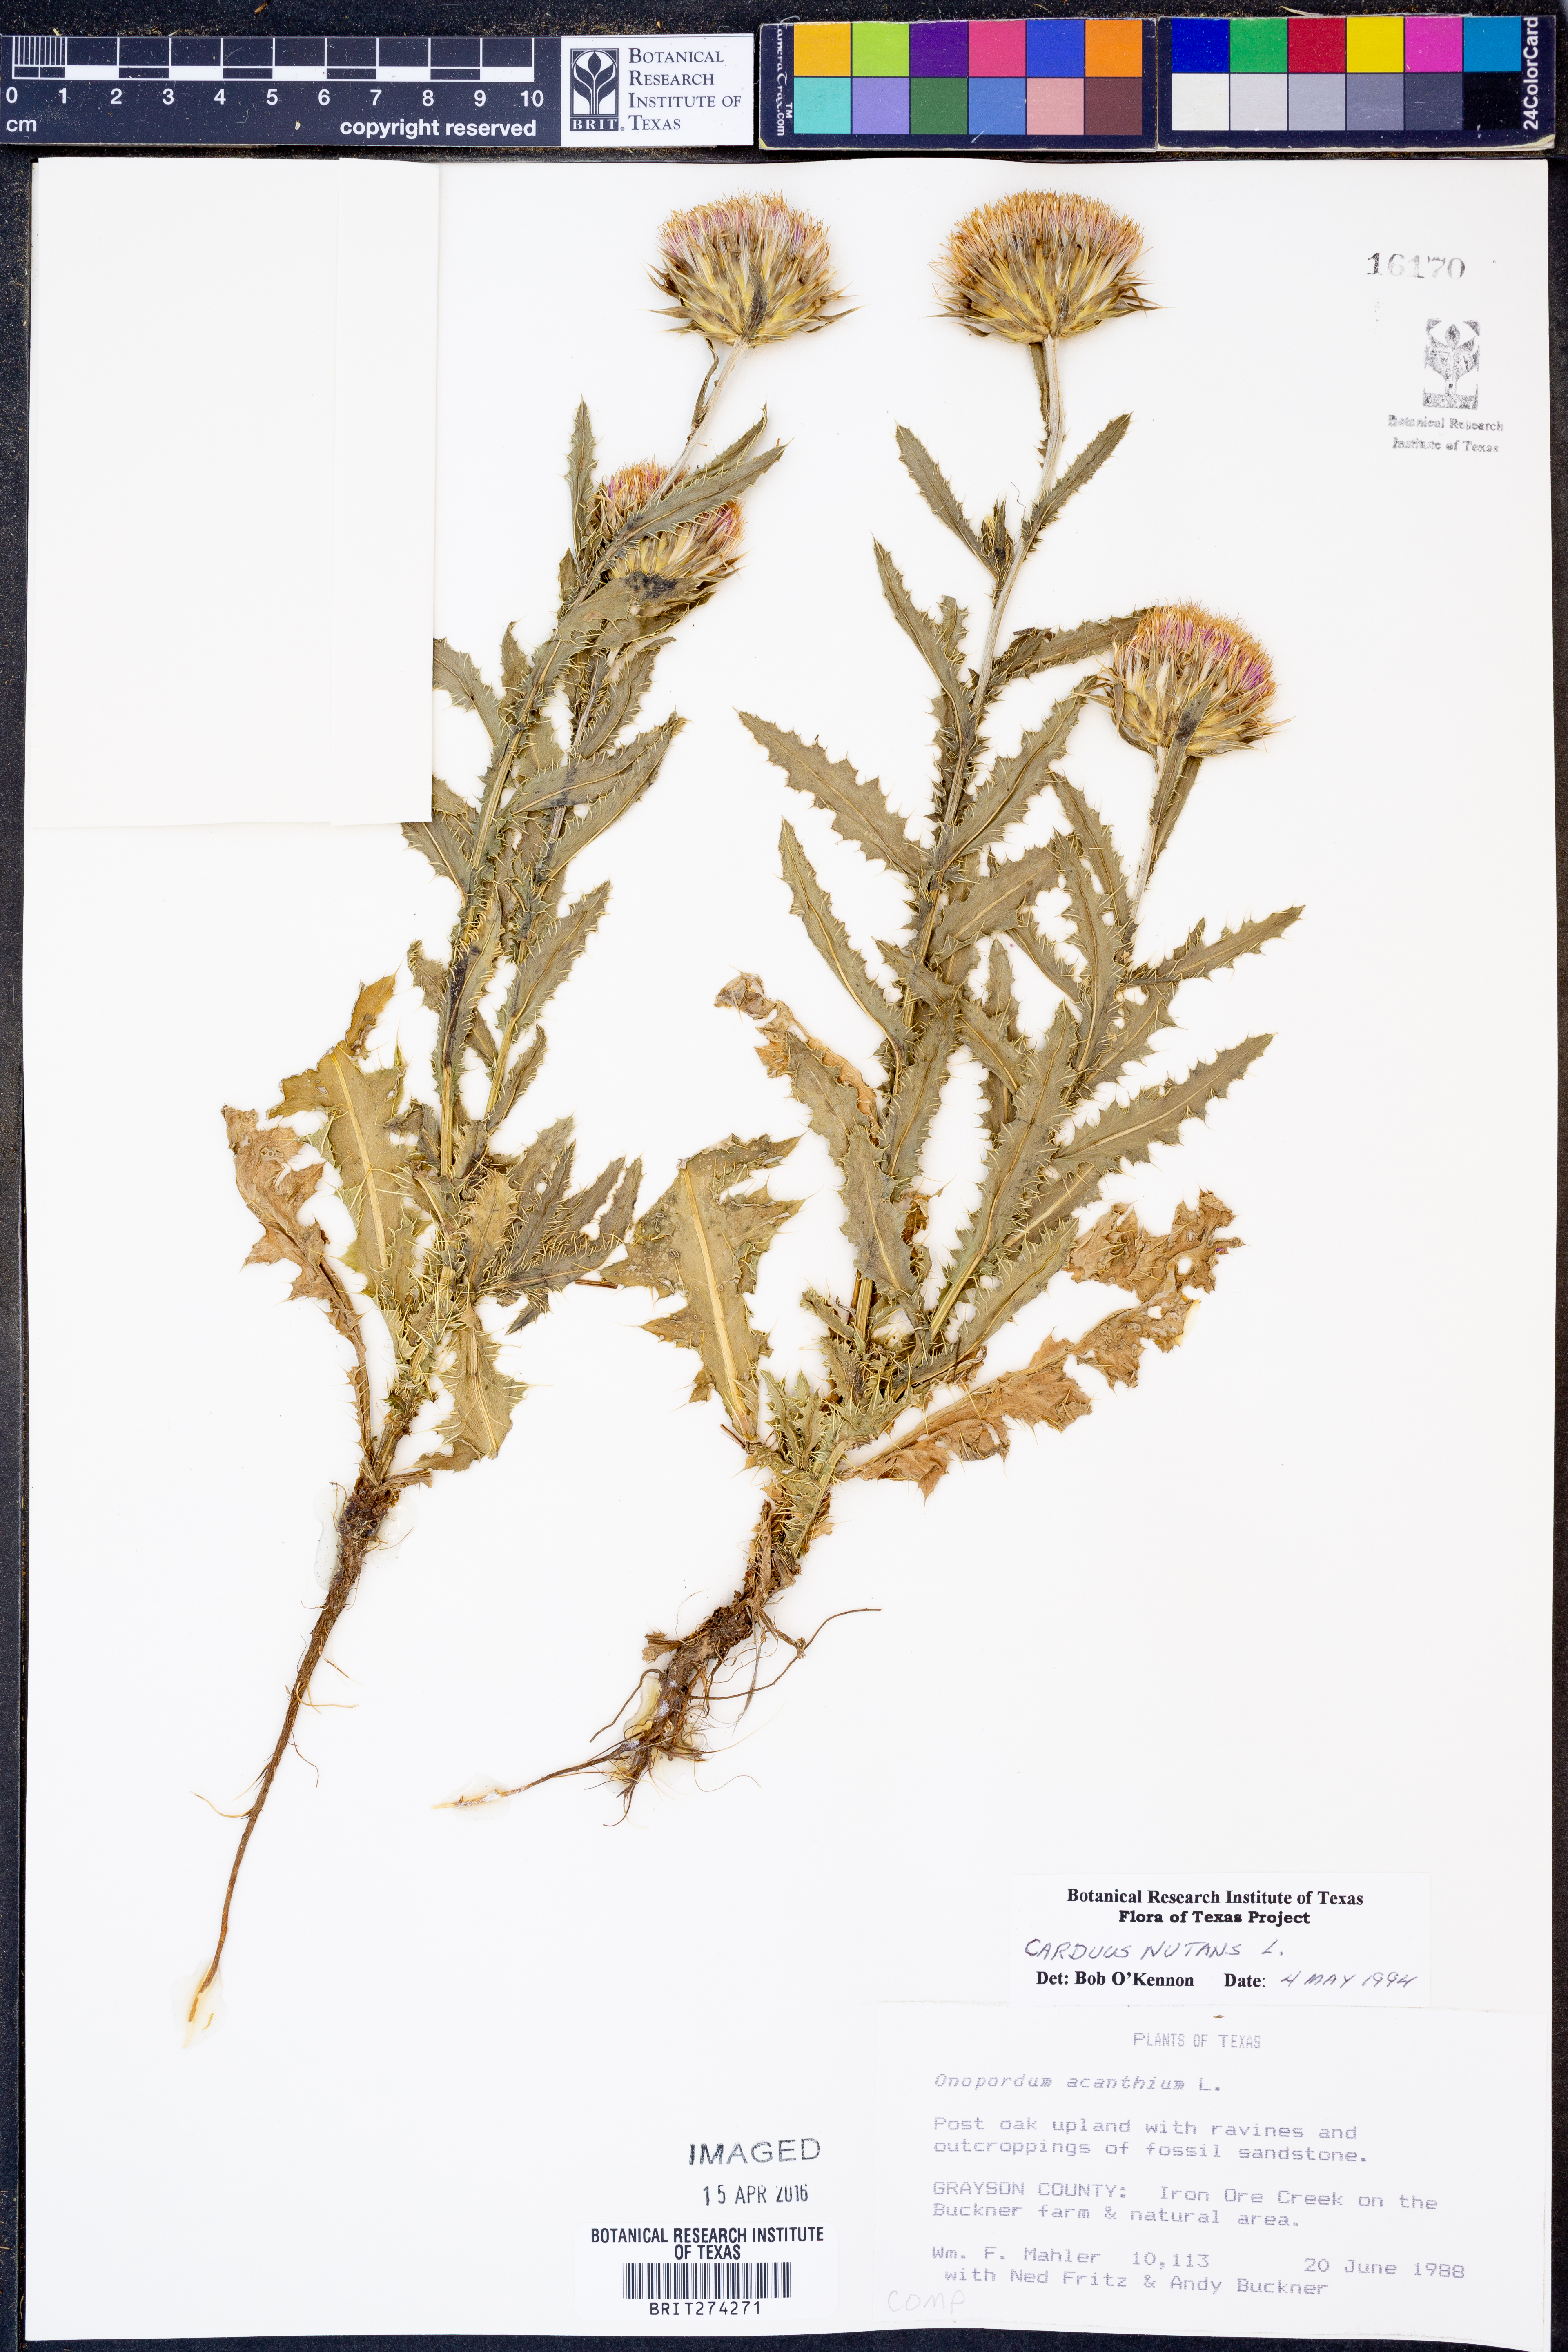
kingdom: Plantae
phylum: Tracheophyta
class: Magnoliopsida
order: Asterales
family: Asteraceae
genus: Carduus
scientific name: Carduus nutans
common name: Musk thistle
